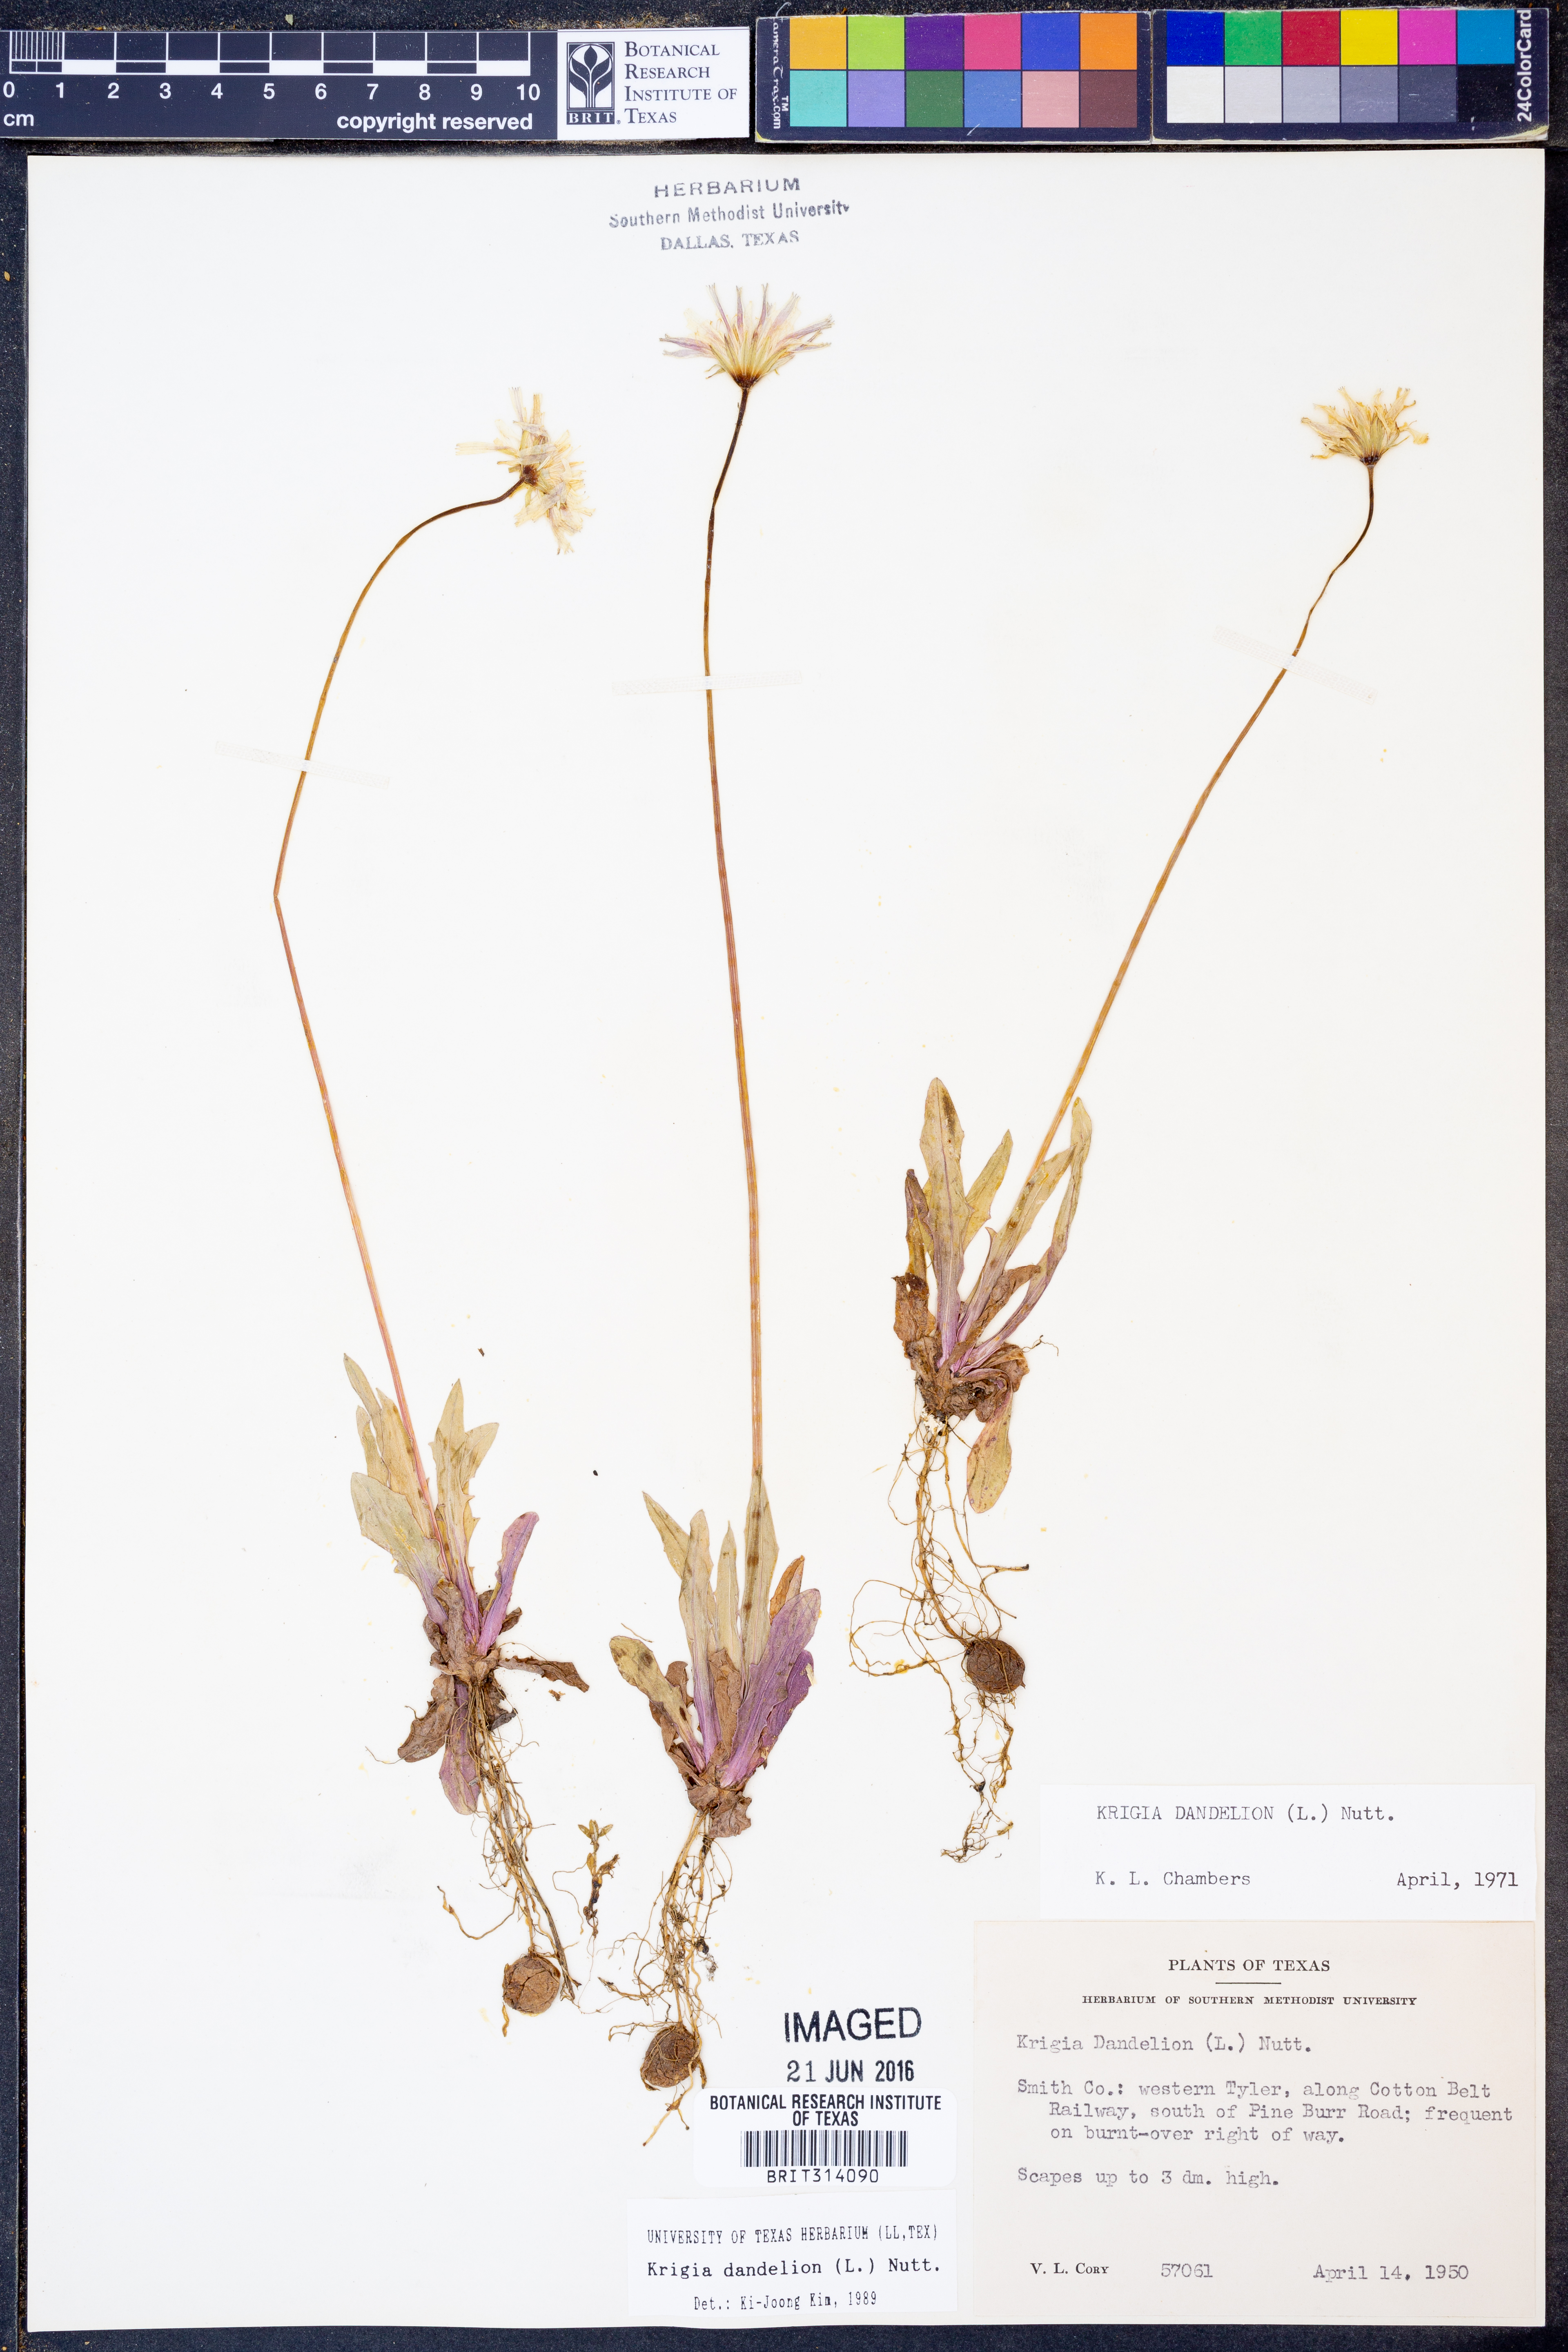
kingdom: Plantae
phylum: Tracheophyta
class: Magnoliopsida
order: Asterales
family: Asteraceae
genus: Krigia
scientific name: Krigia dandelion
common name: Colonial dwarf-dandelion
